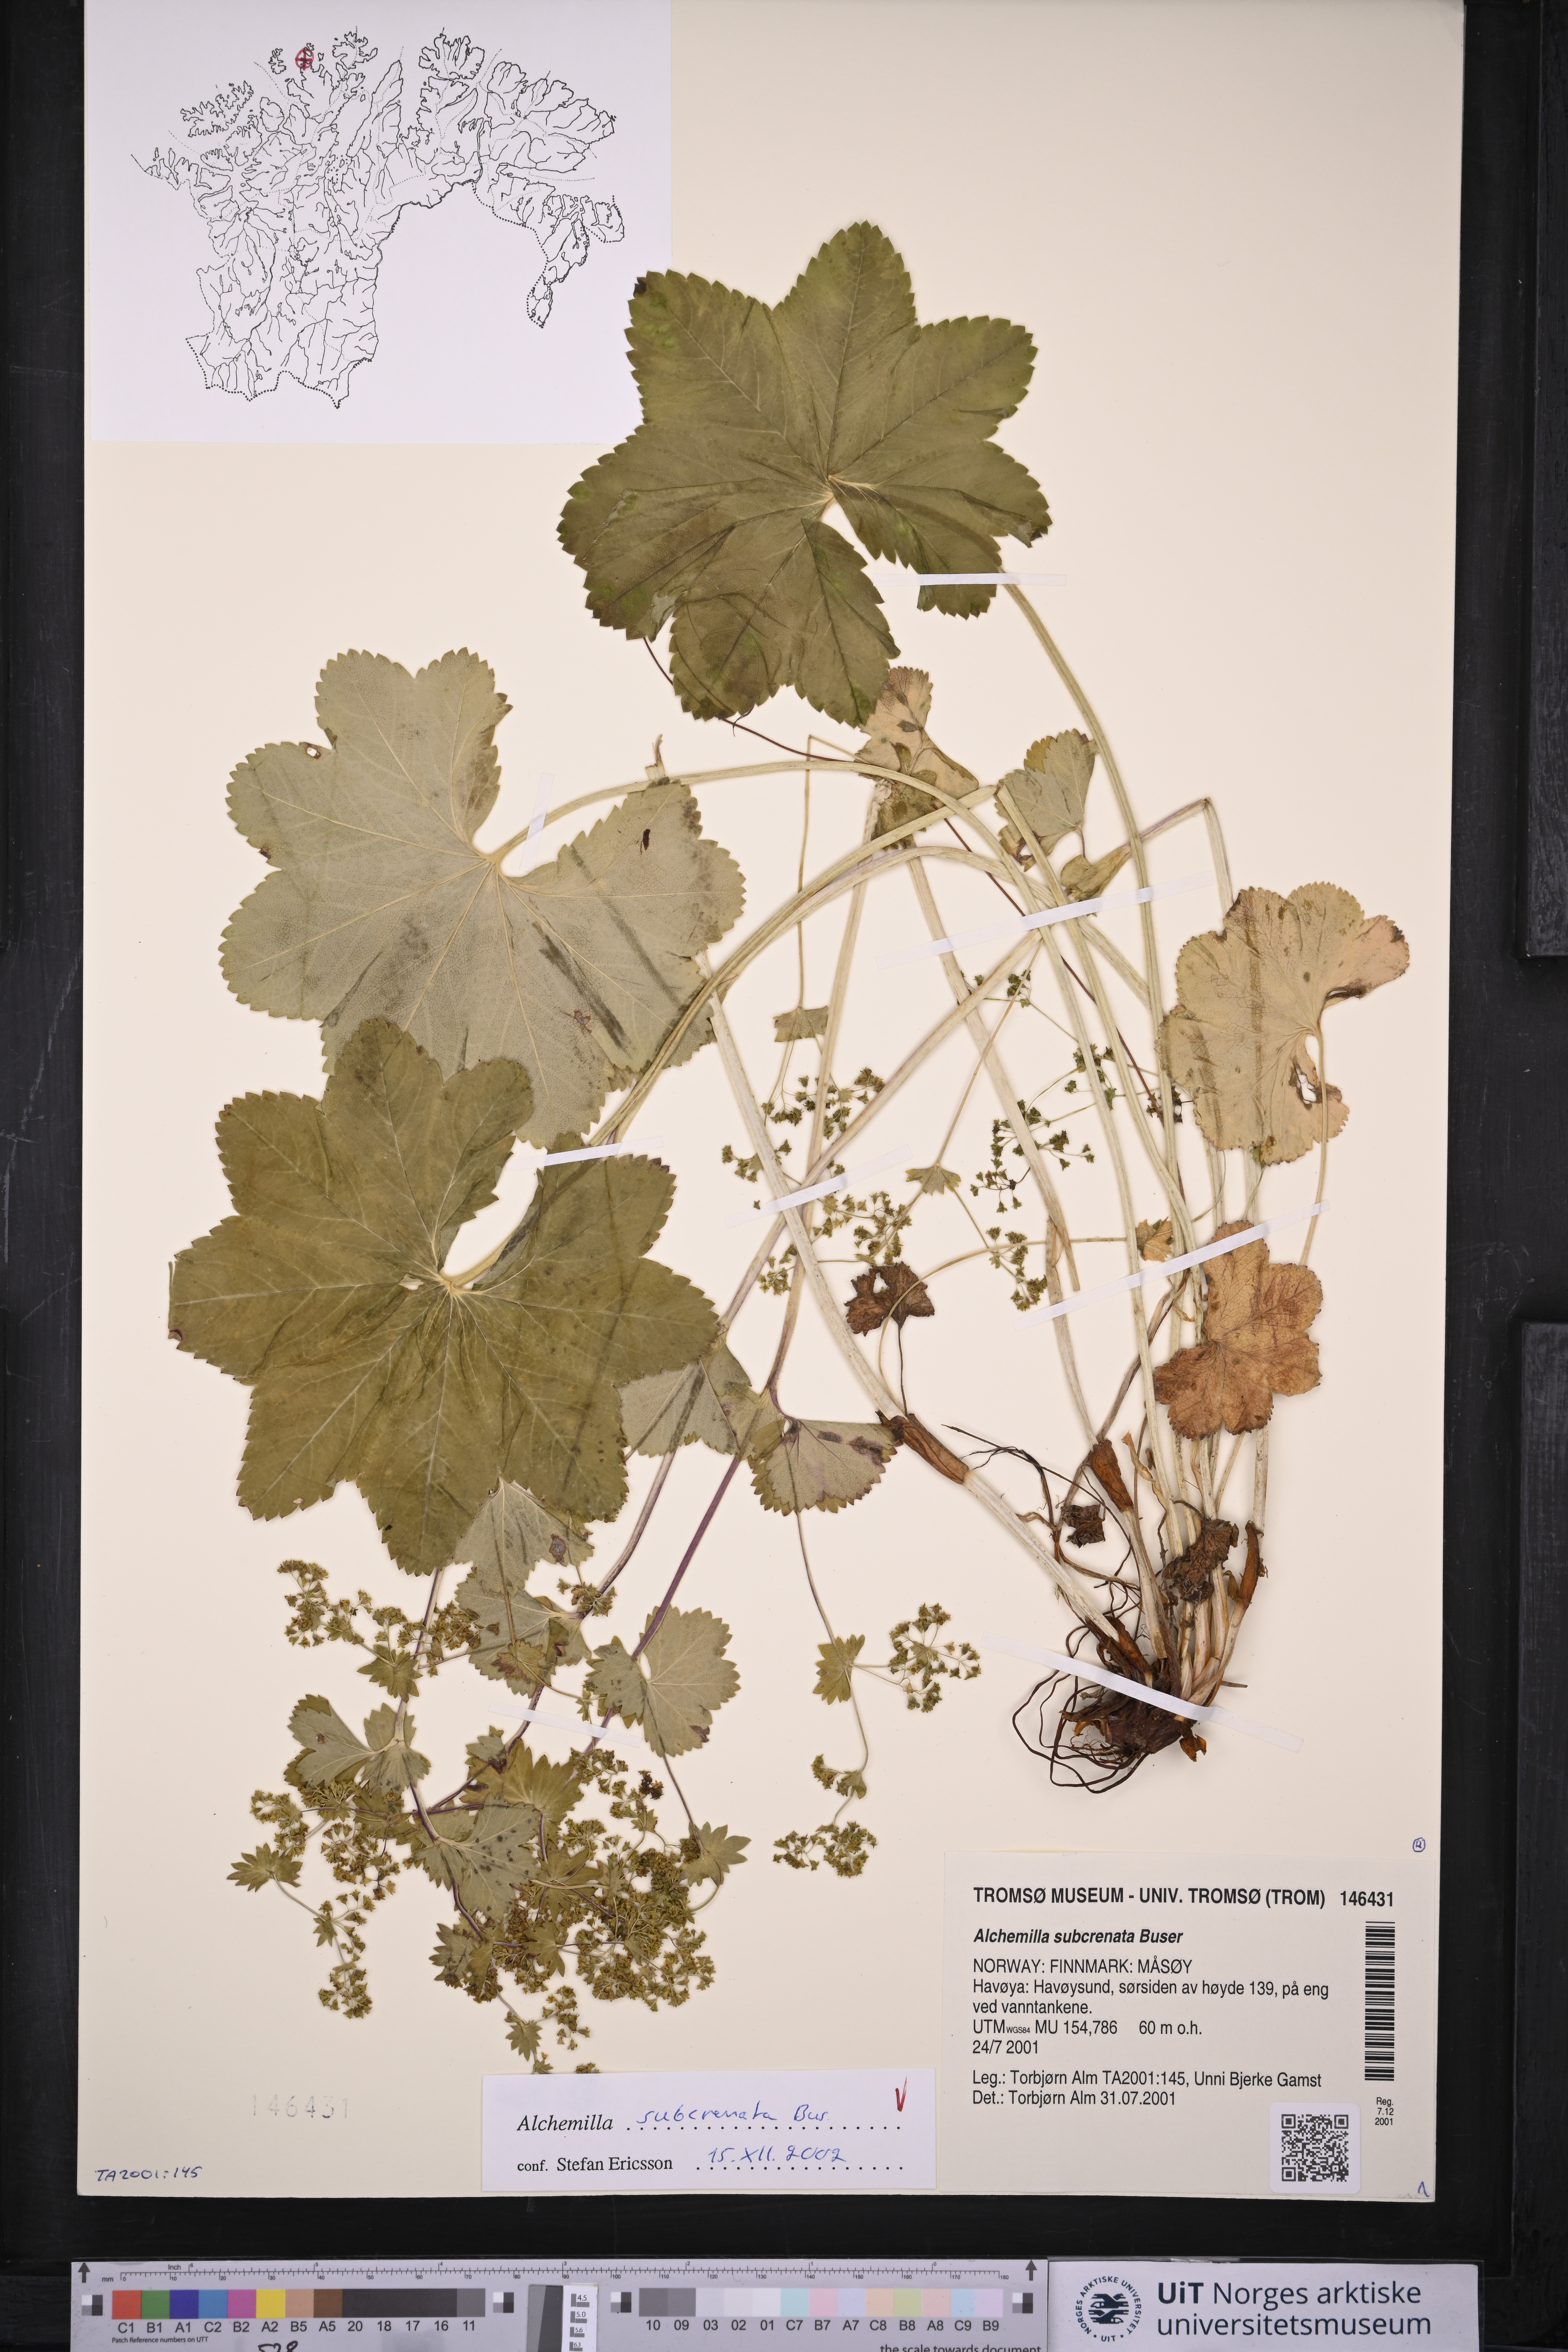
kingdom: Plantae
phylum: Tracheophyta
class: Magnoliopsida
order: Rosales
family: Rosaceae
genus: Alchemilla
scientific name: Alchemilla subcrenata
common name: Broadtooth lady's mantle
